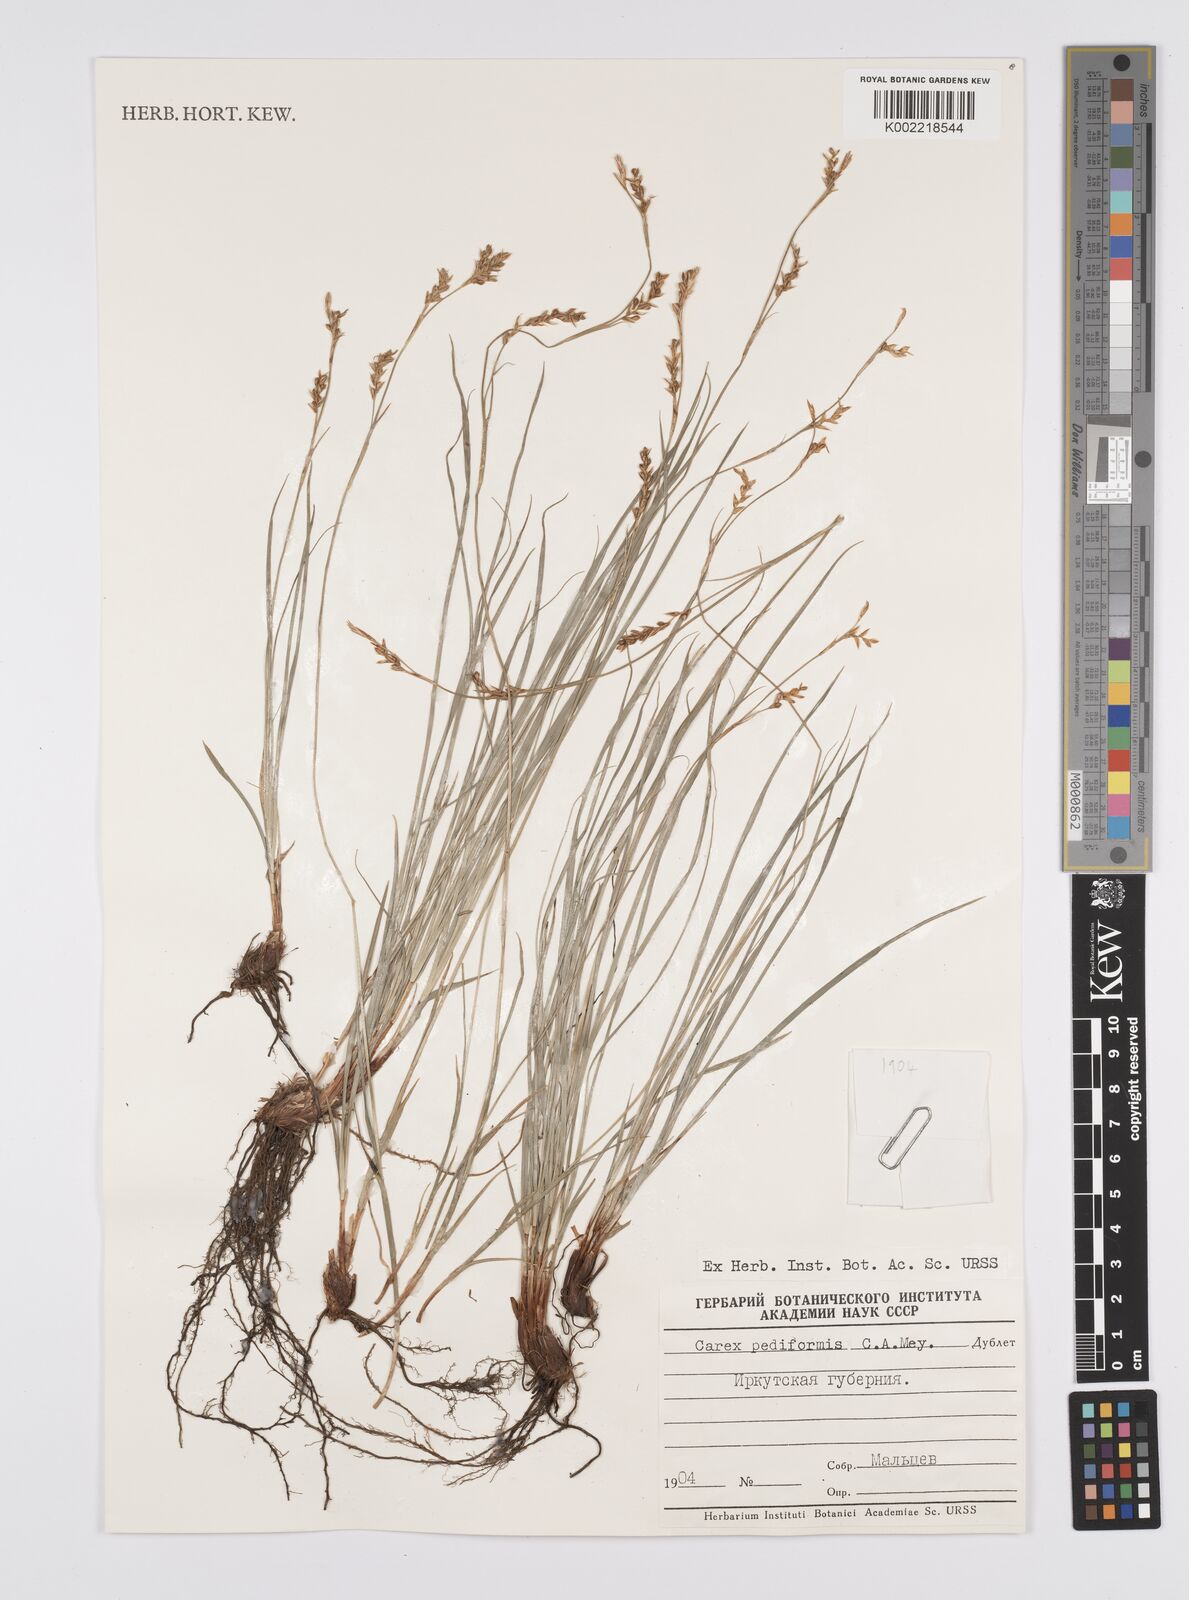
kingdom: Plantae
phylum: Tracheophyta
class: Liliopsida
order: Poales
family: Cyperaceae
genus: Carex
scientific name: Carex pediformis
